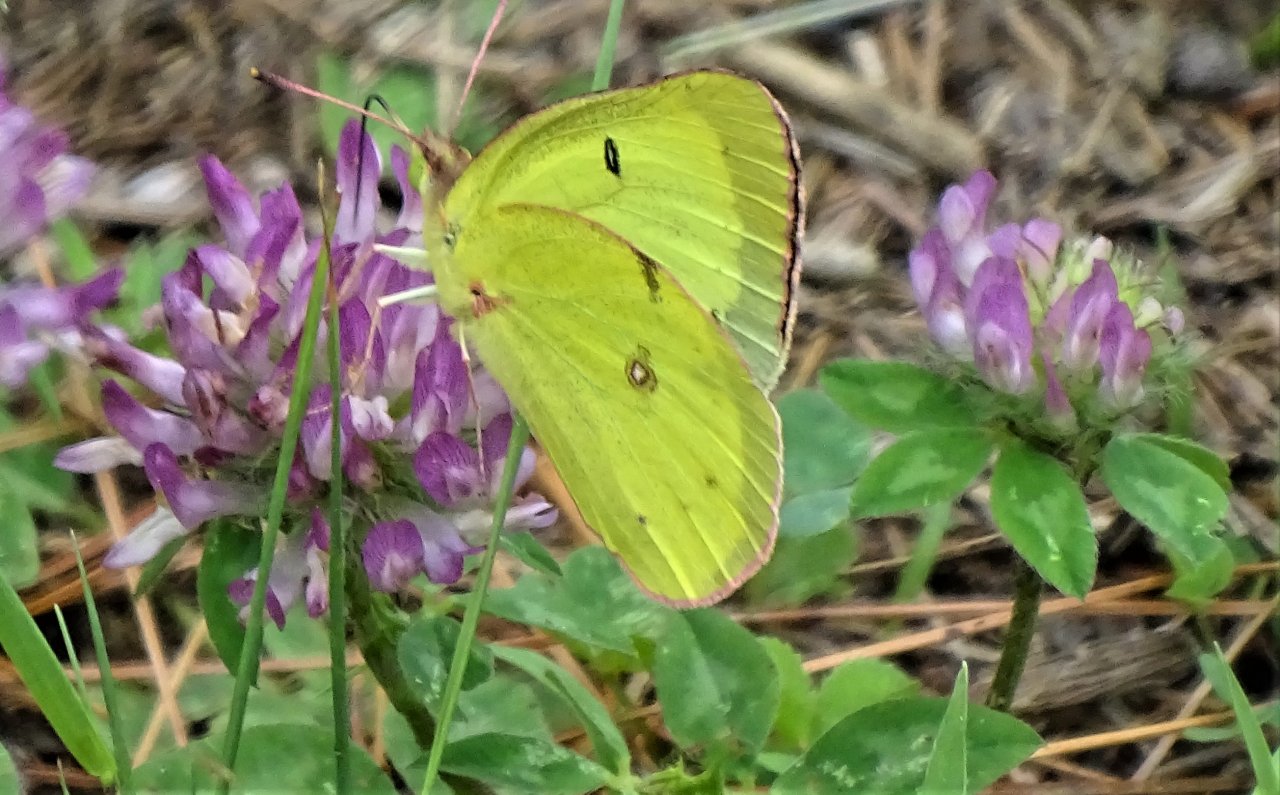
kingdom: Animalia
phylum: Arthropoda
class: Insecta
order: Lepidoptera
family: Pieridae
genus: Colias
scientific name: Colias philodice
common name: Clouded Sulphur
